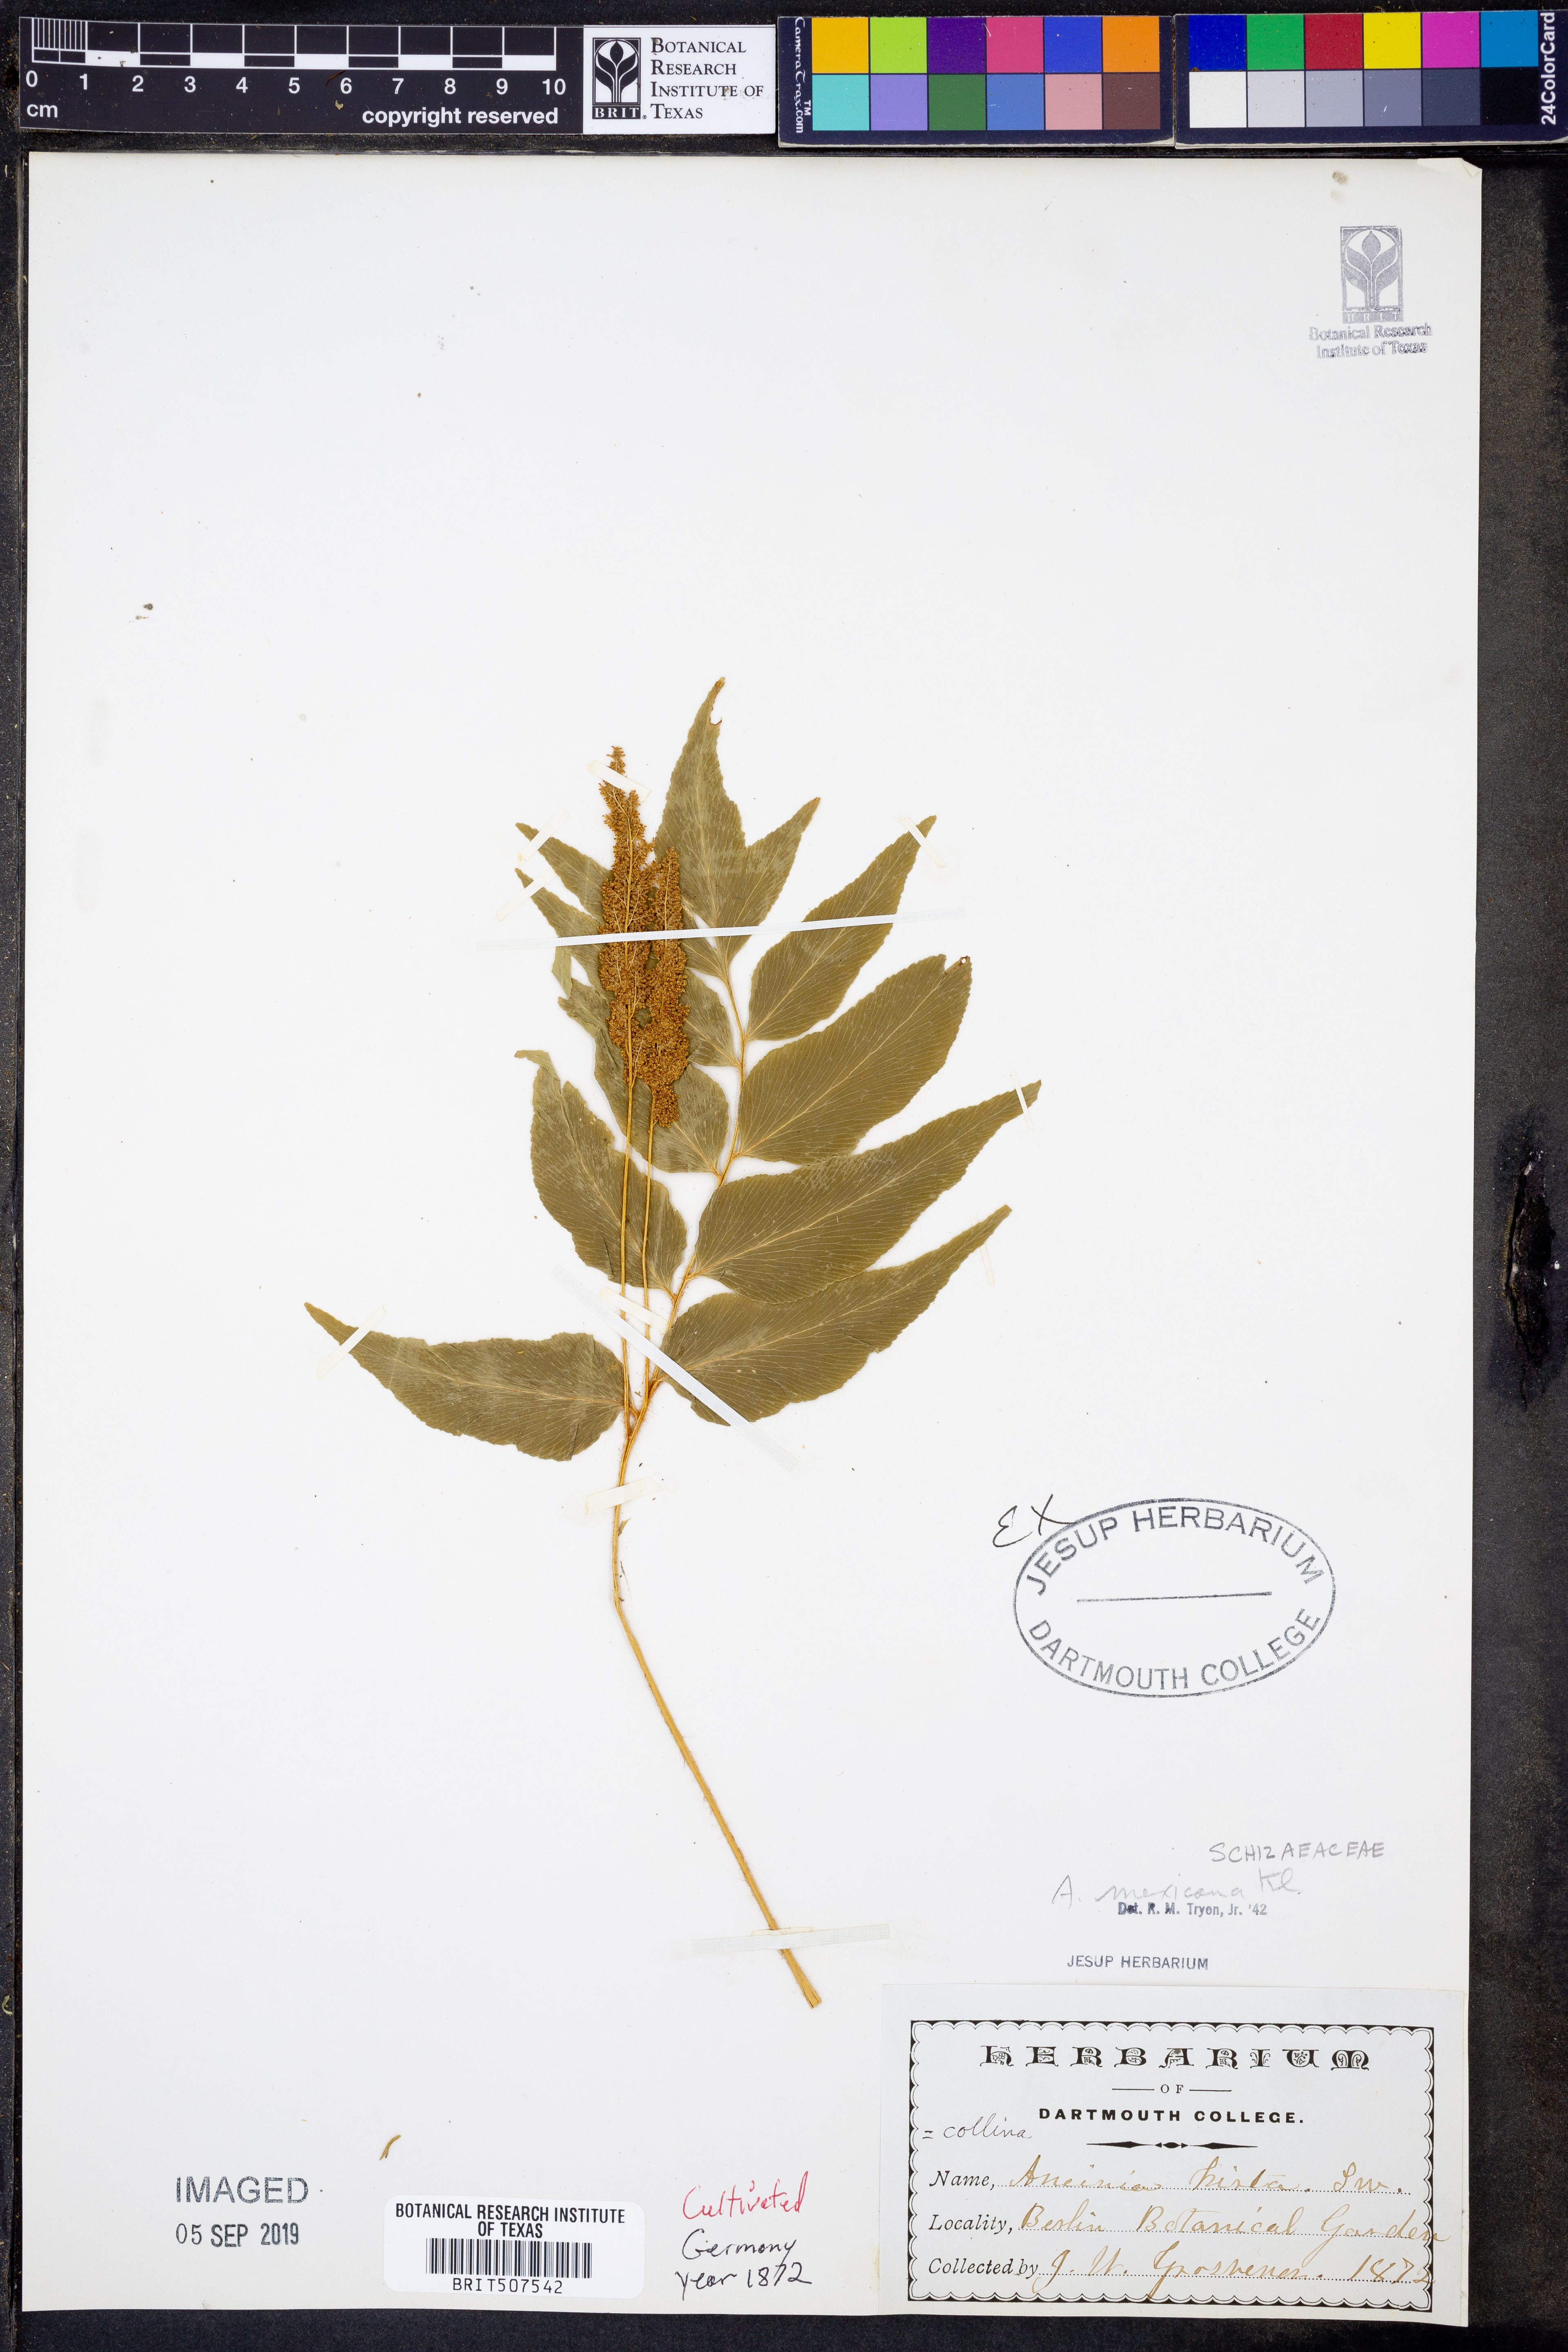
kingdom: Plantae
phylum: Tracheophyta
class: Polypodiopsida
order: Schizaeales
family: Anemiaceae
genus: Anemia
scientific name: Anemia mexicana
